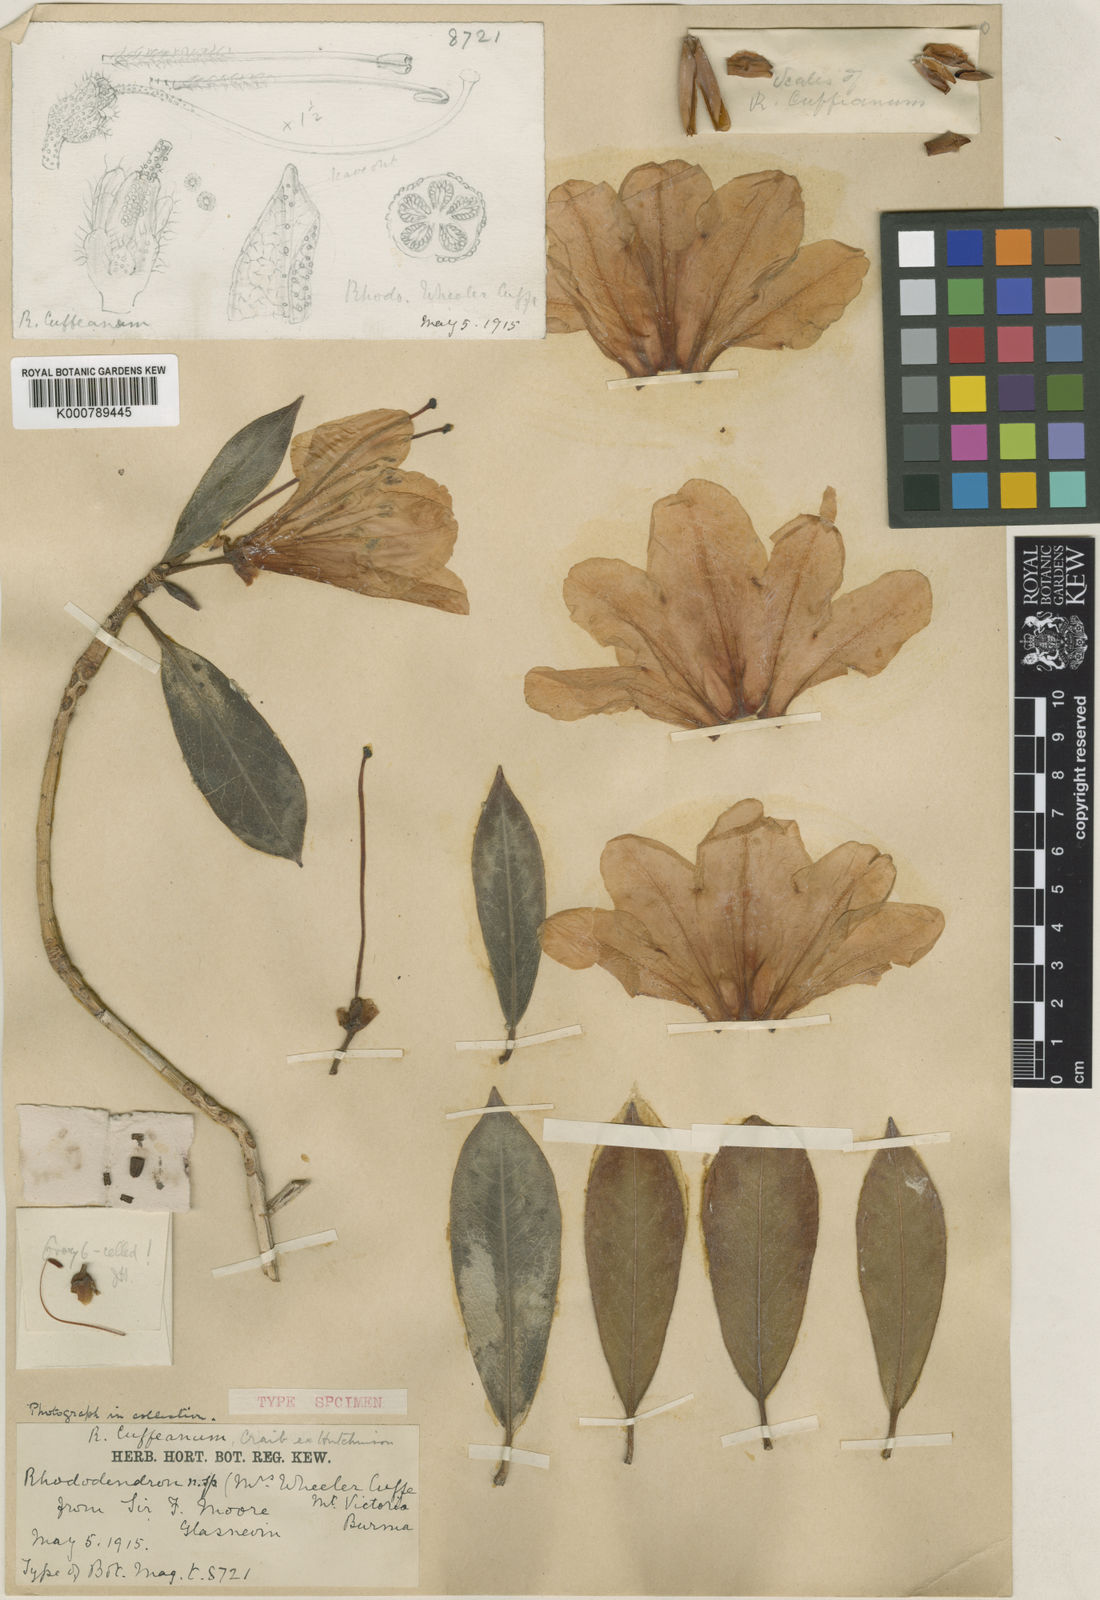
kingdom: Plantae
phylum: Tracheophyta
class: Magnoliopsida
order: Ericales
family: Ericaceae
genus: Rhododendron
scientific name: Rhododendron
